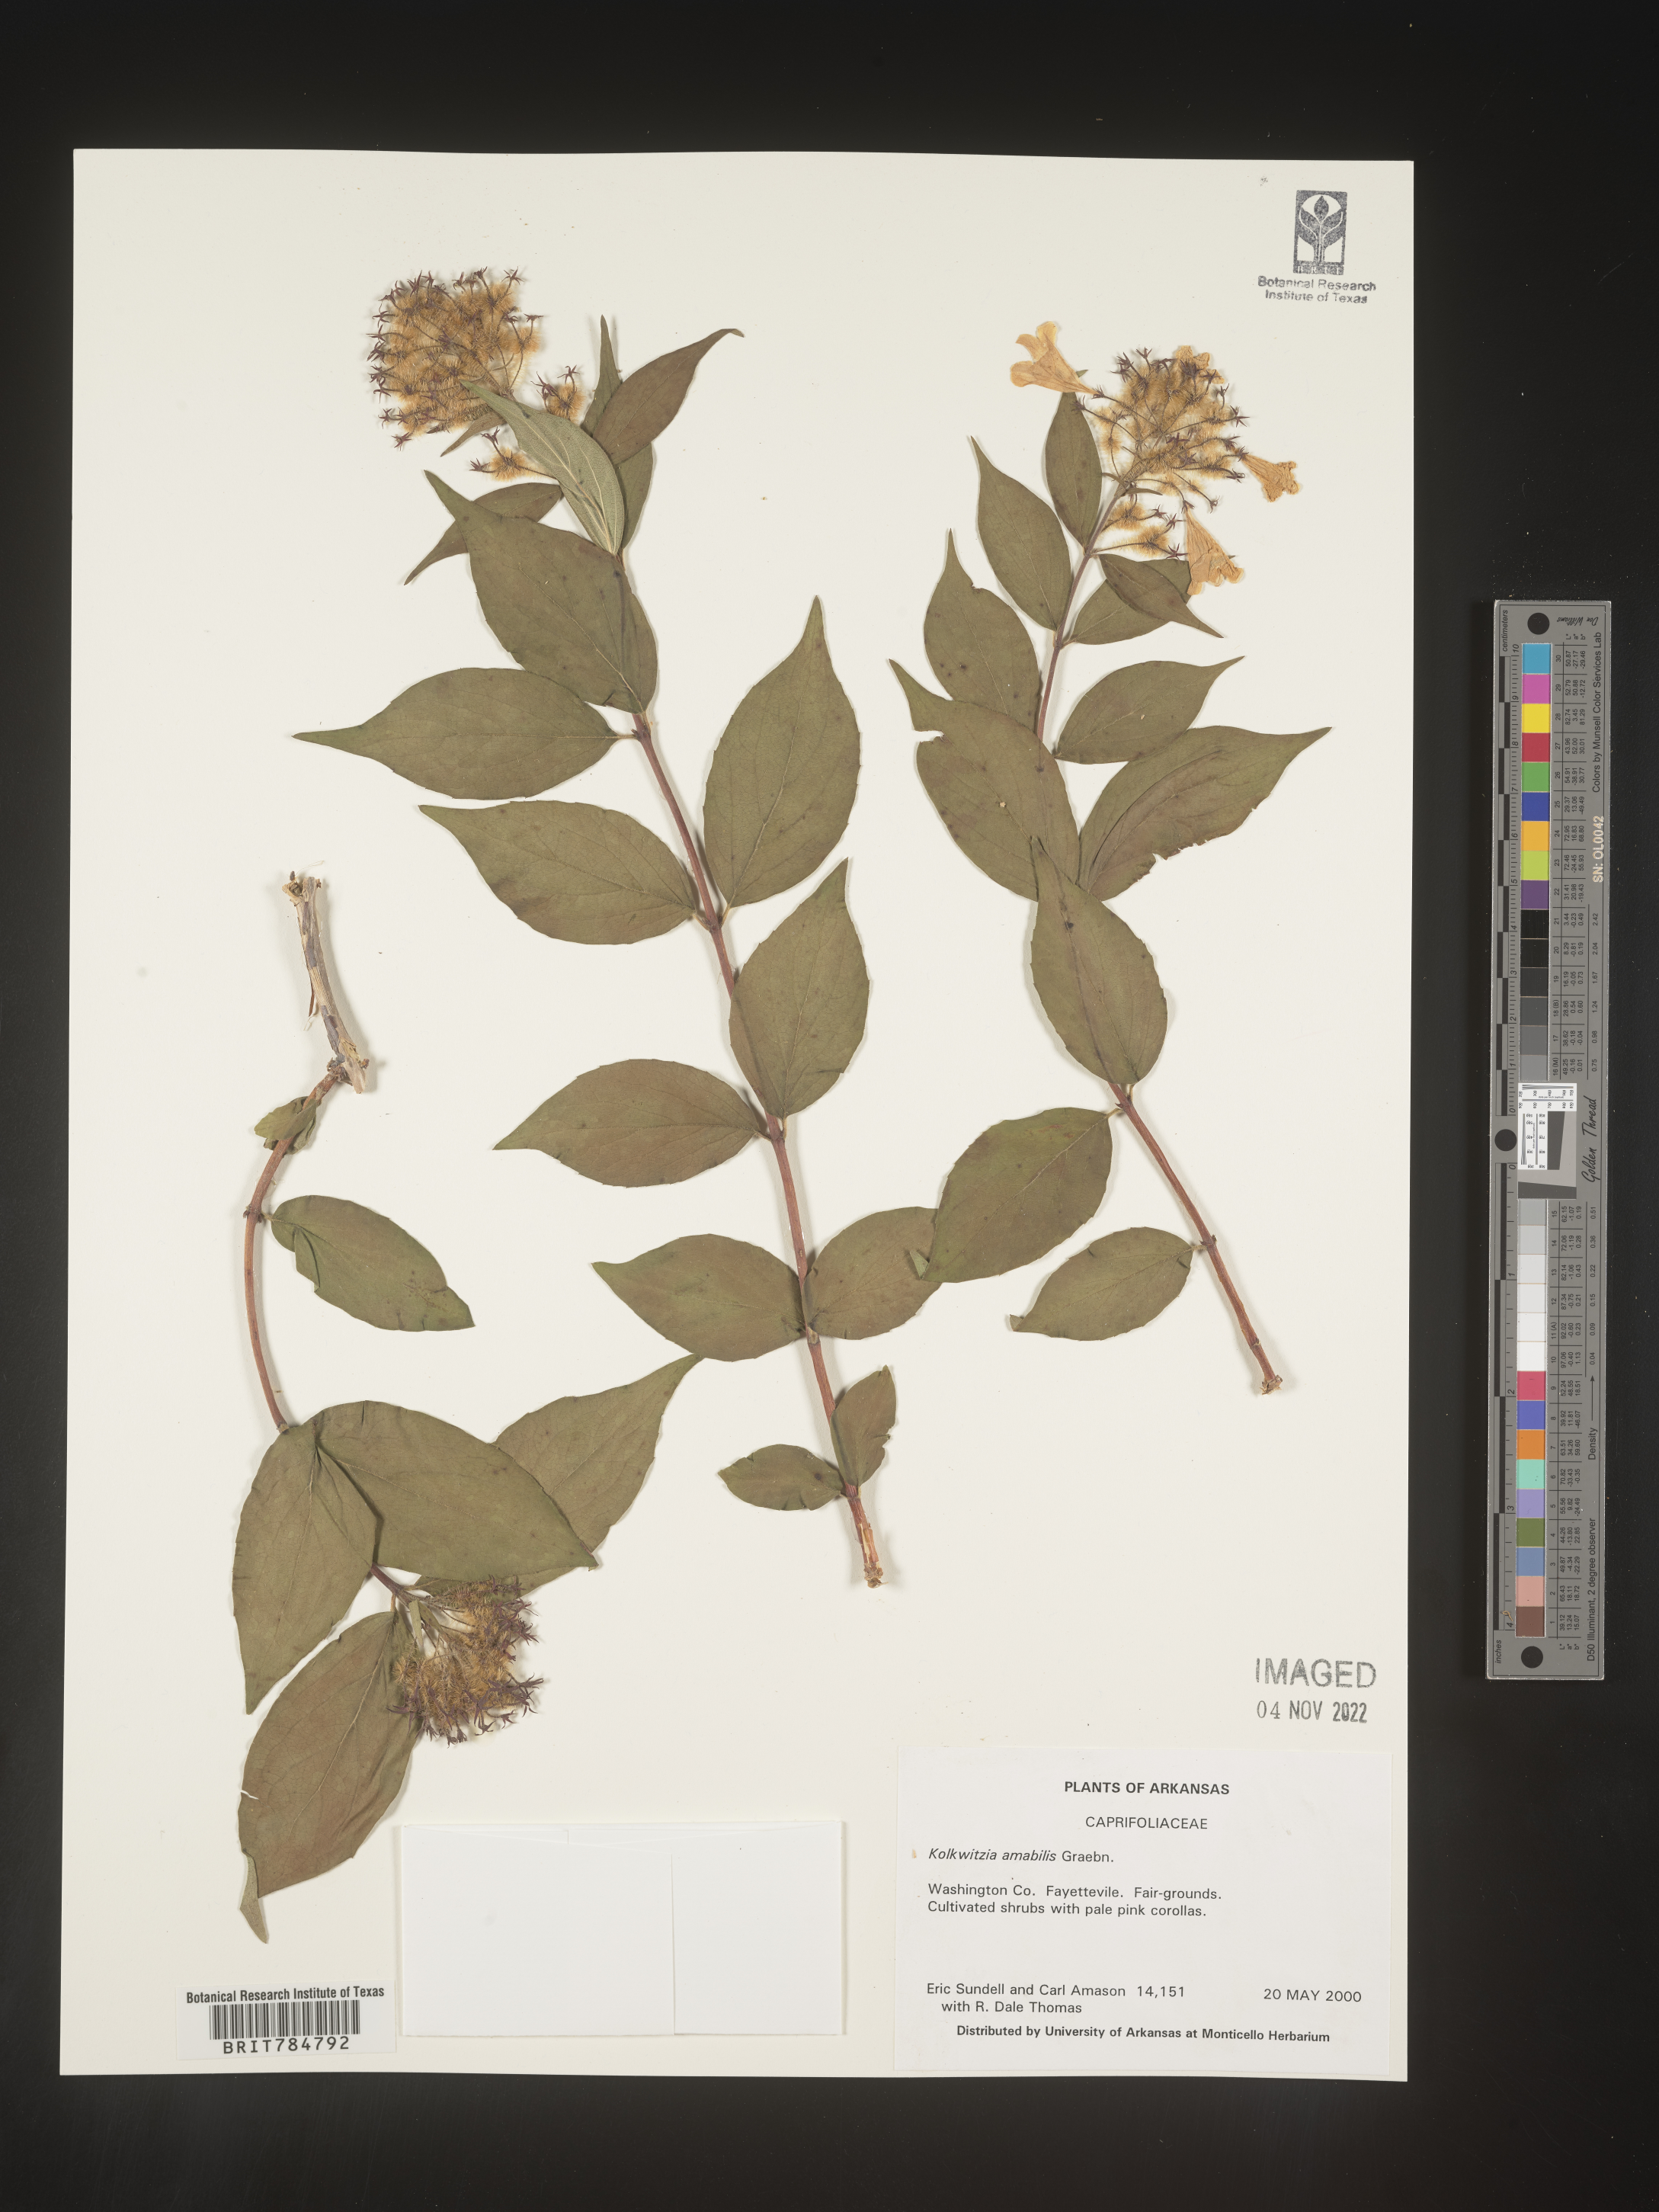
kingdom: Plantae
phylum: Tracheophyta
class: Magnoliopsida
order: Dipsacales
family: Caprifoliaceae
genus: Kolkwitzia
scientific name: Kolkwitzia
